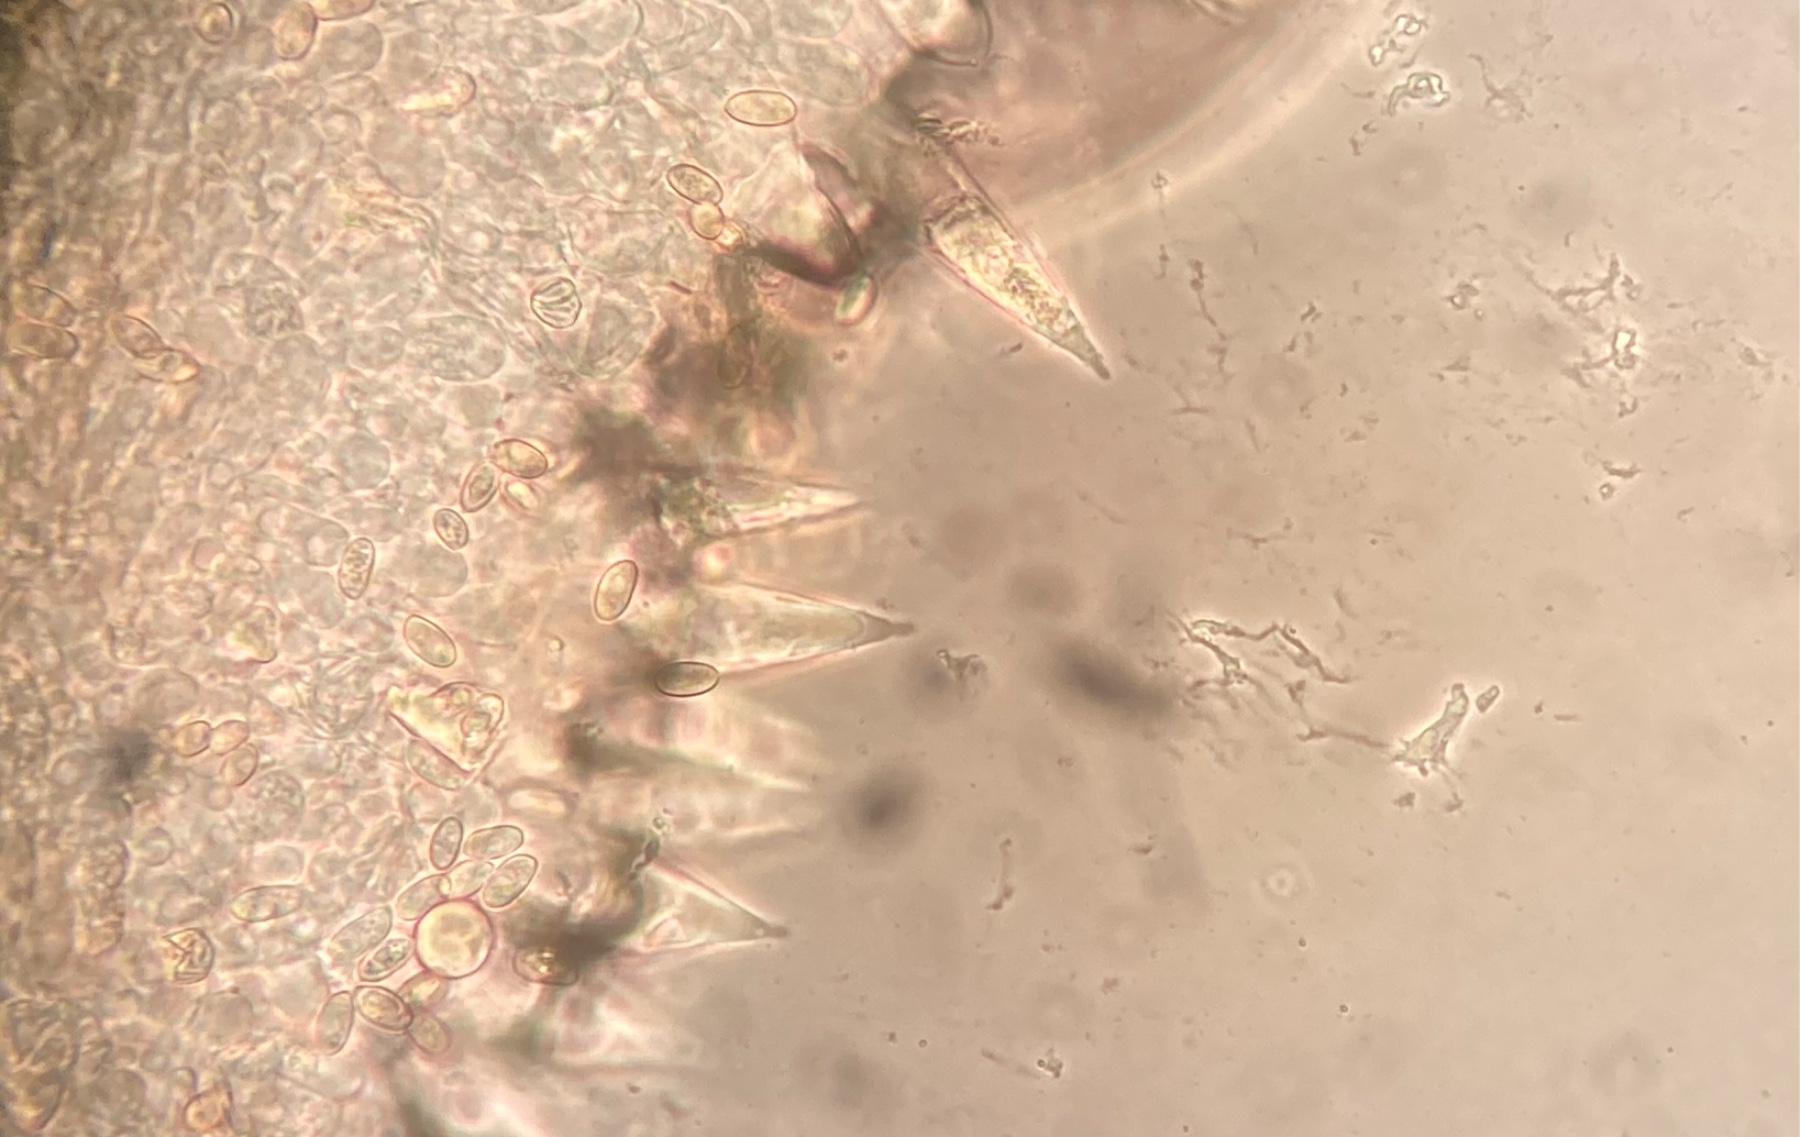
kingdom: Fungi
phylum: Basidiomycota
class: Agaricomycetes
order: Agaricales
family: Macrocystidiaceae
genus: Macrocystidia
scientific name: Macrocystidia cucumis
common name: Cucumber cap
